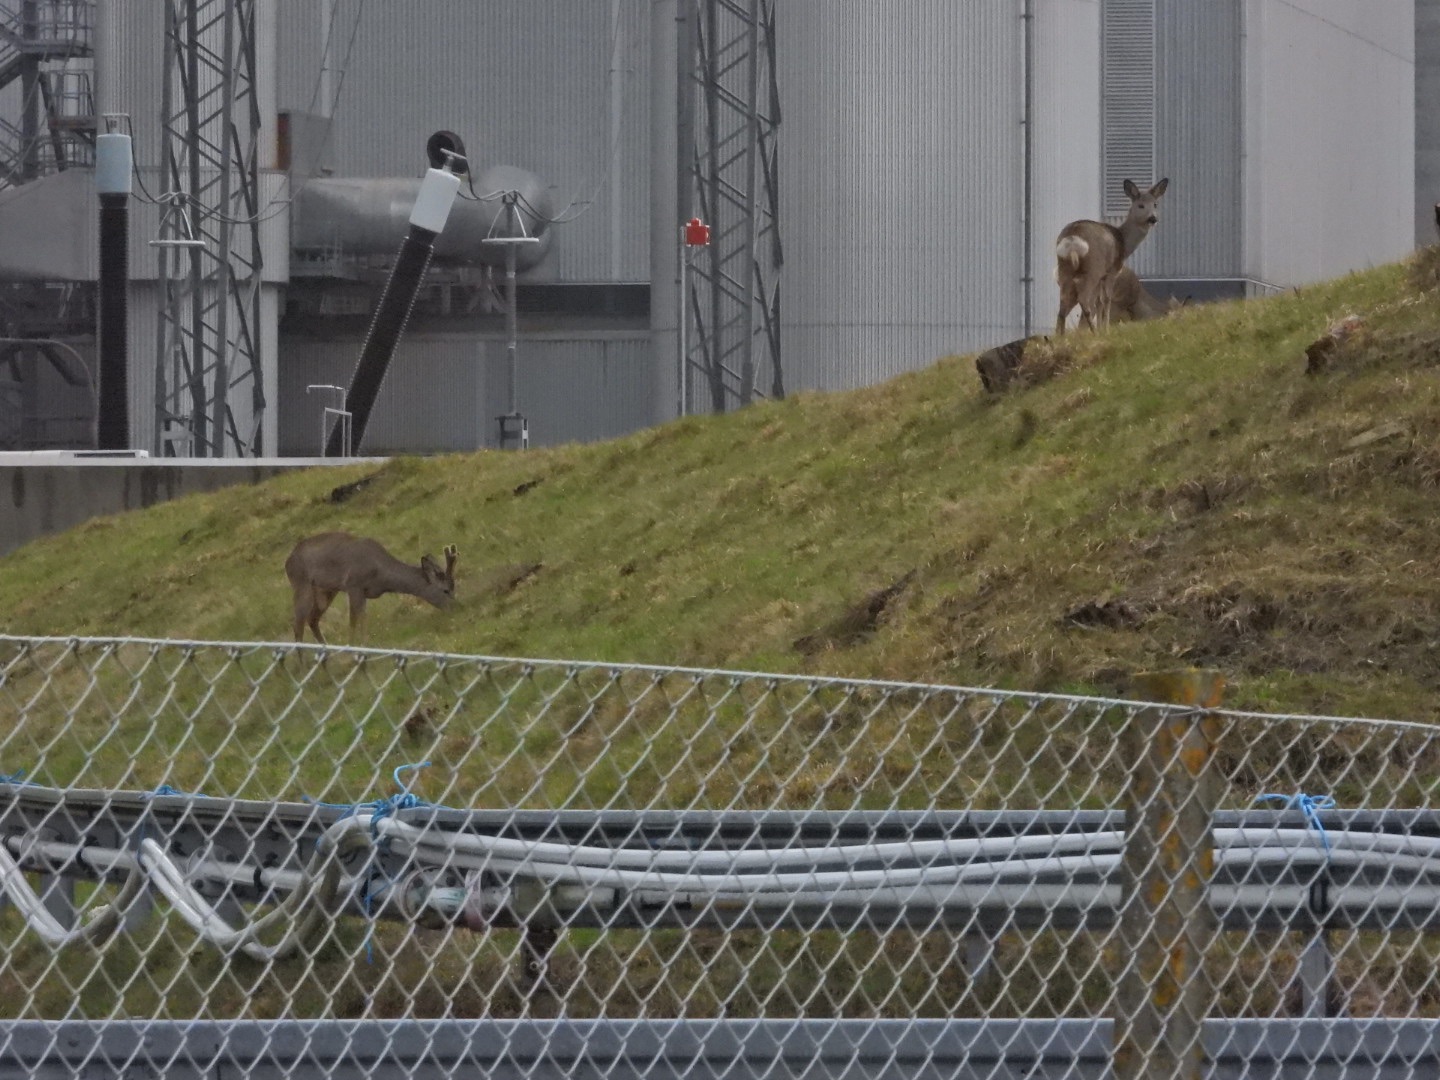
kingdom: Animalia
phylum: Chordata
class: Mammalia
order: Artiodactyla
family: Cervidae
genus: Capreolus
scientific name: Capreolus capreolus
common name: Rådyr
